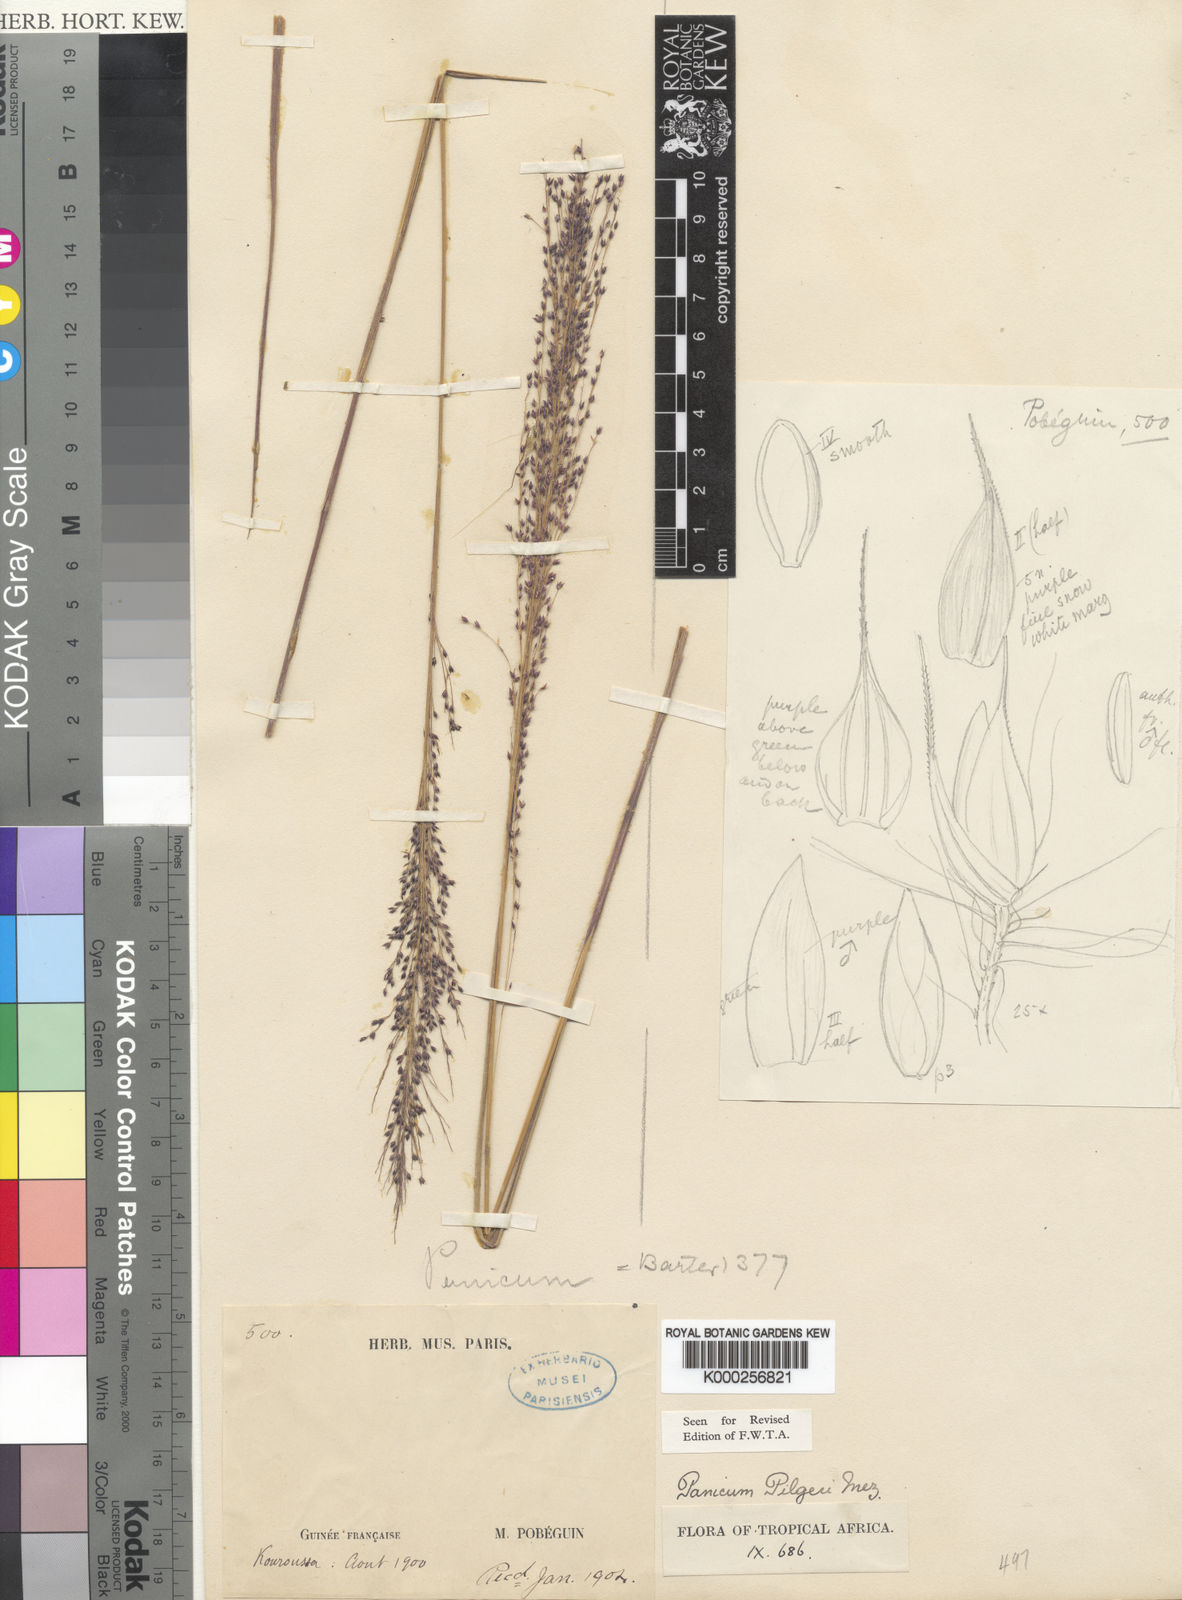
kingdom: Plantae
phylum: Tracheophyta
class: Liliopsida
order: Poales
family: Poaceae
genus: Panicum
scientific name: Panicum pilgeri
